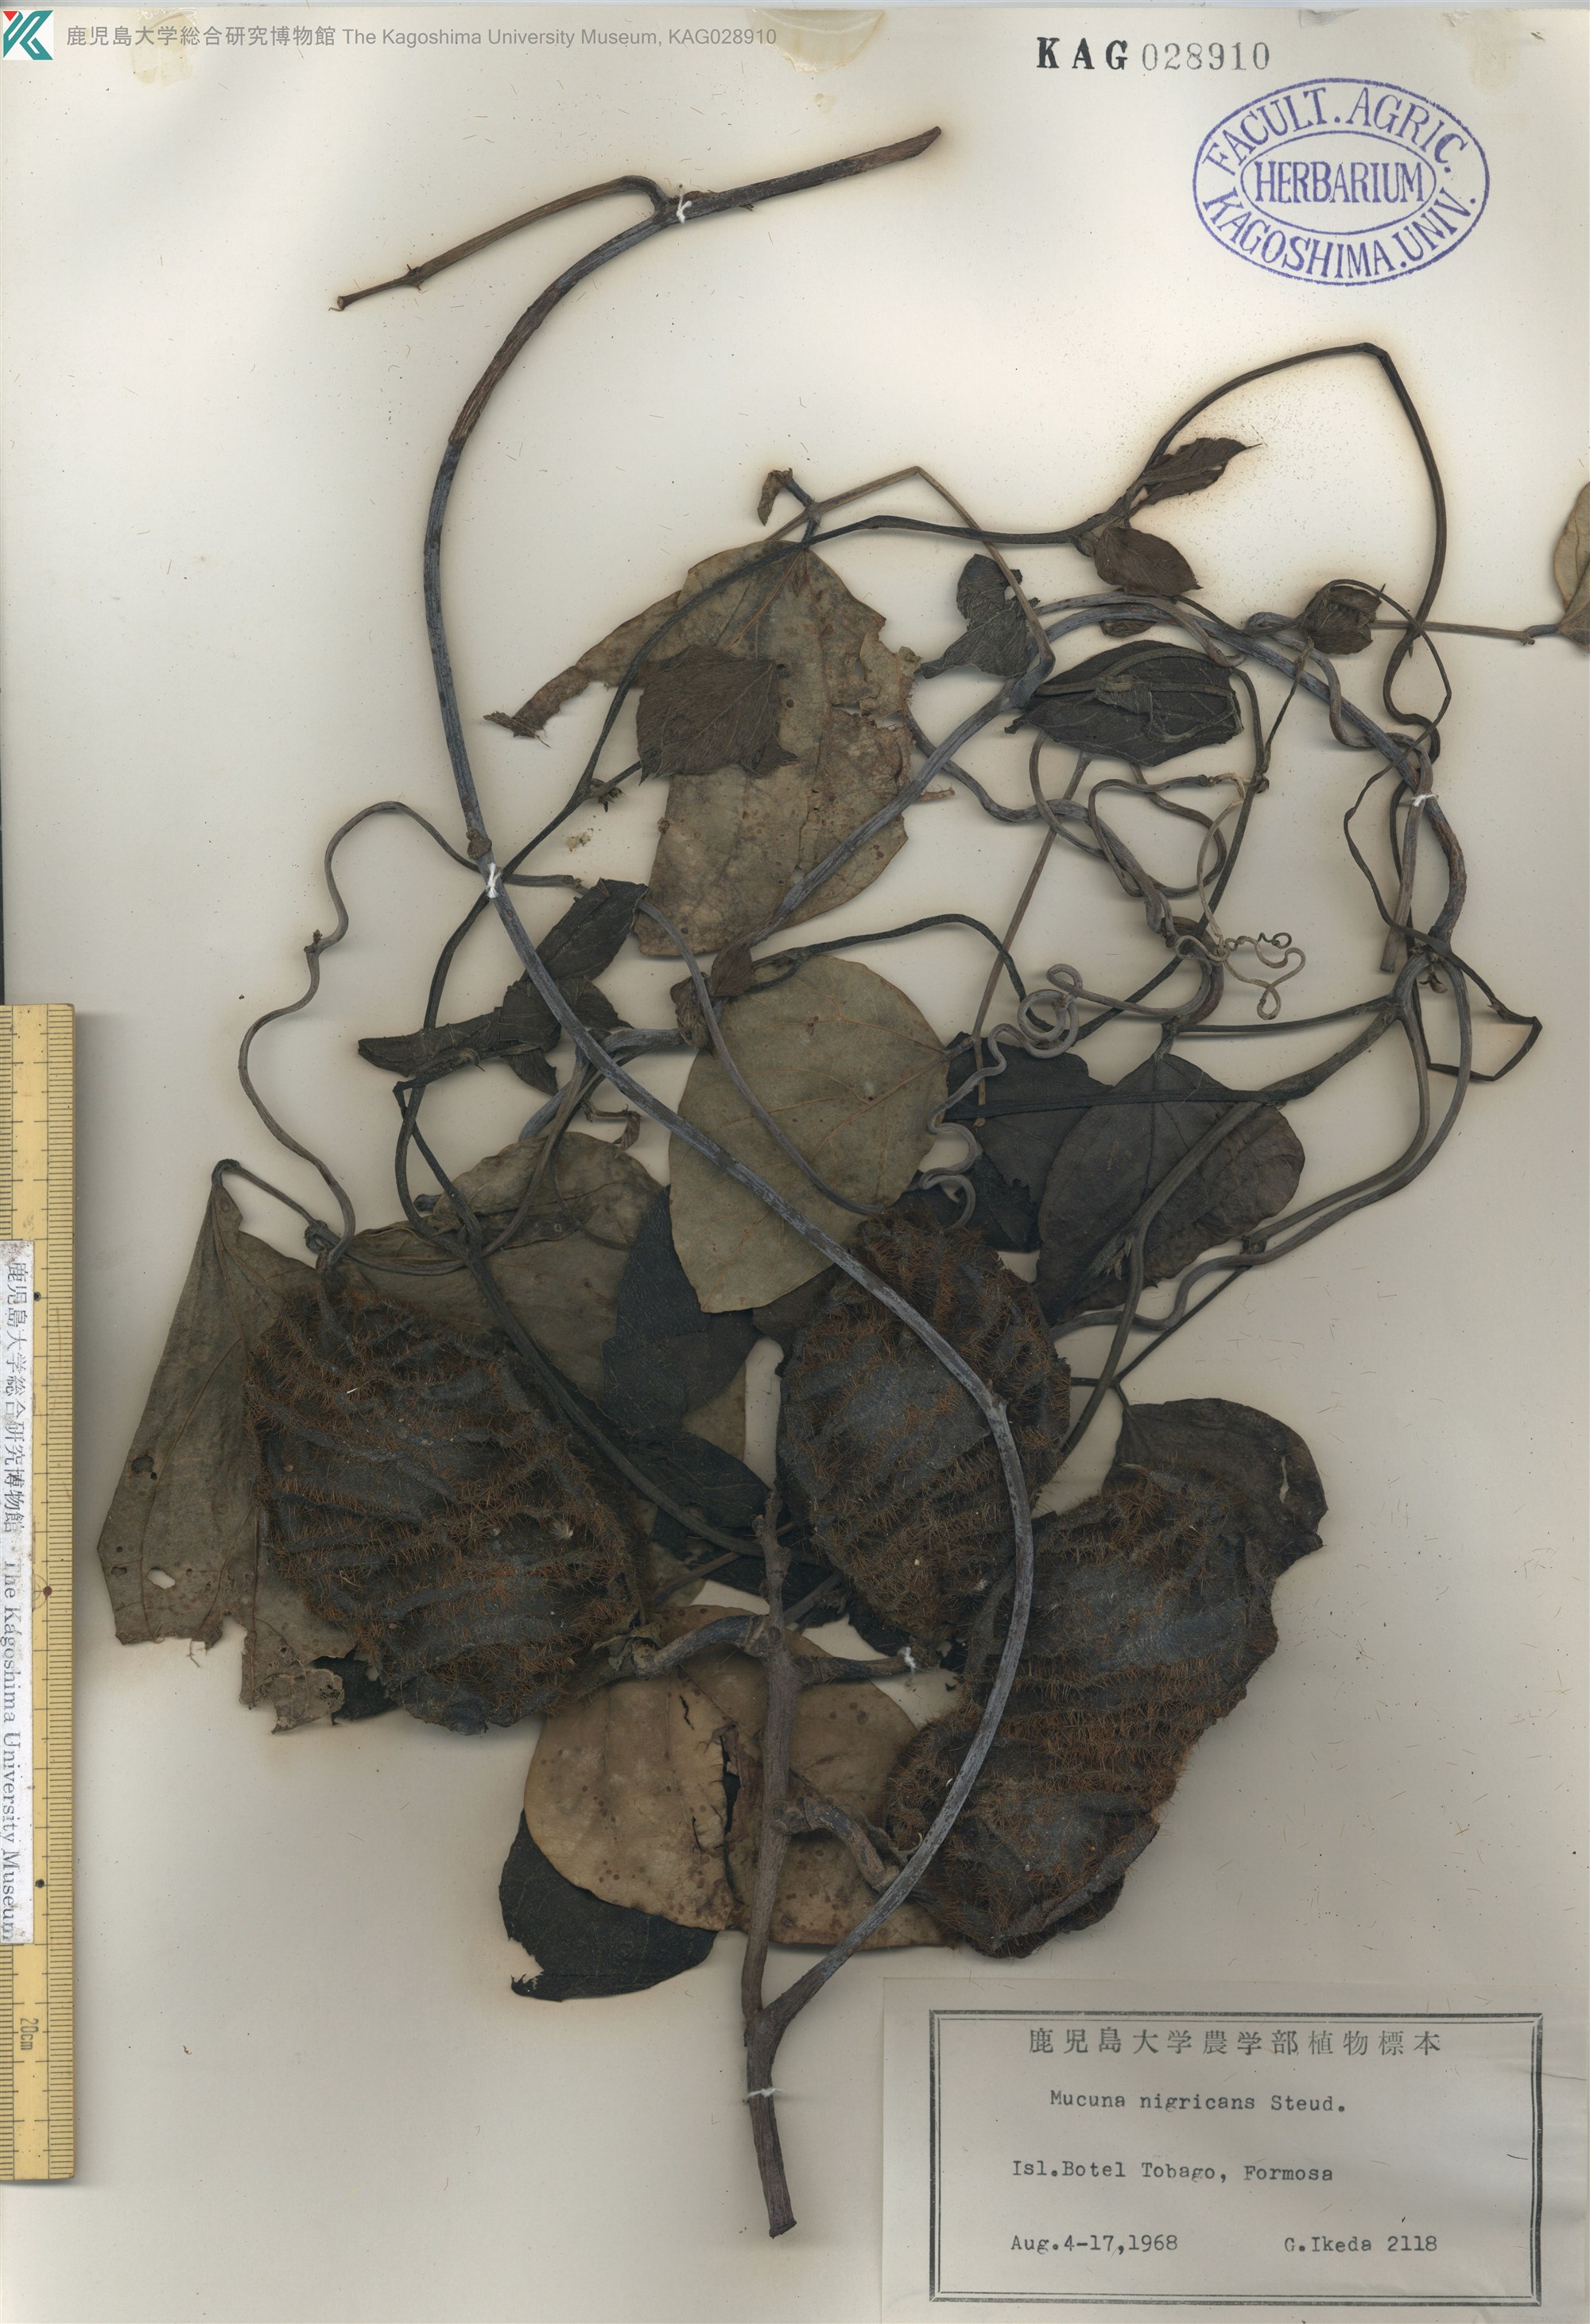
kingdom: Plantae
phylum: Tracheophyta
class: Magnoliopsida
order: Fabales
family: Fabaceae
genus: Mucuna
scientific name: Mucuna membranacea
